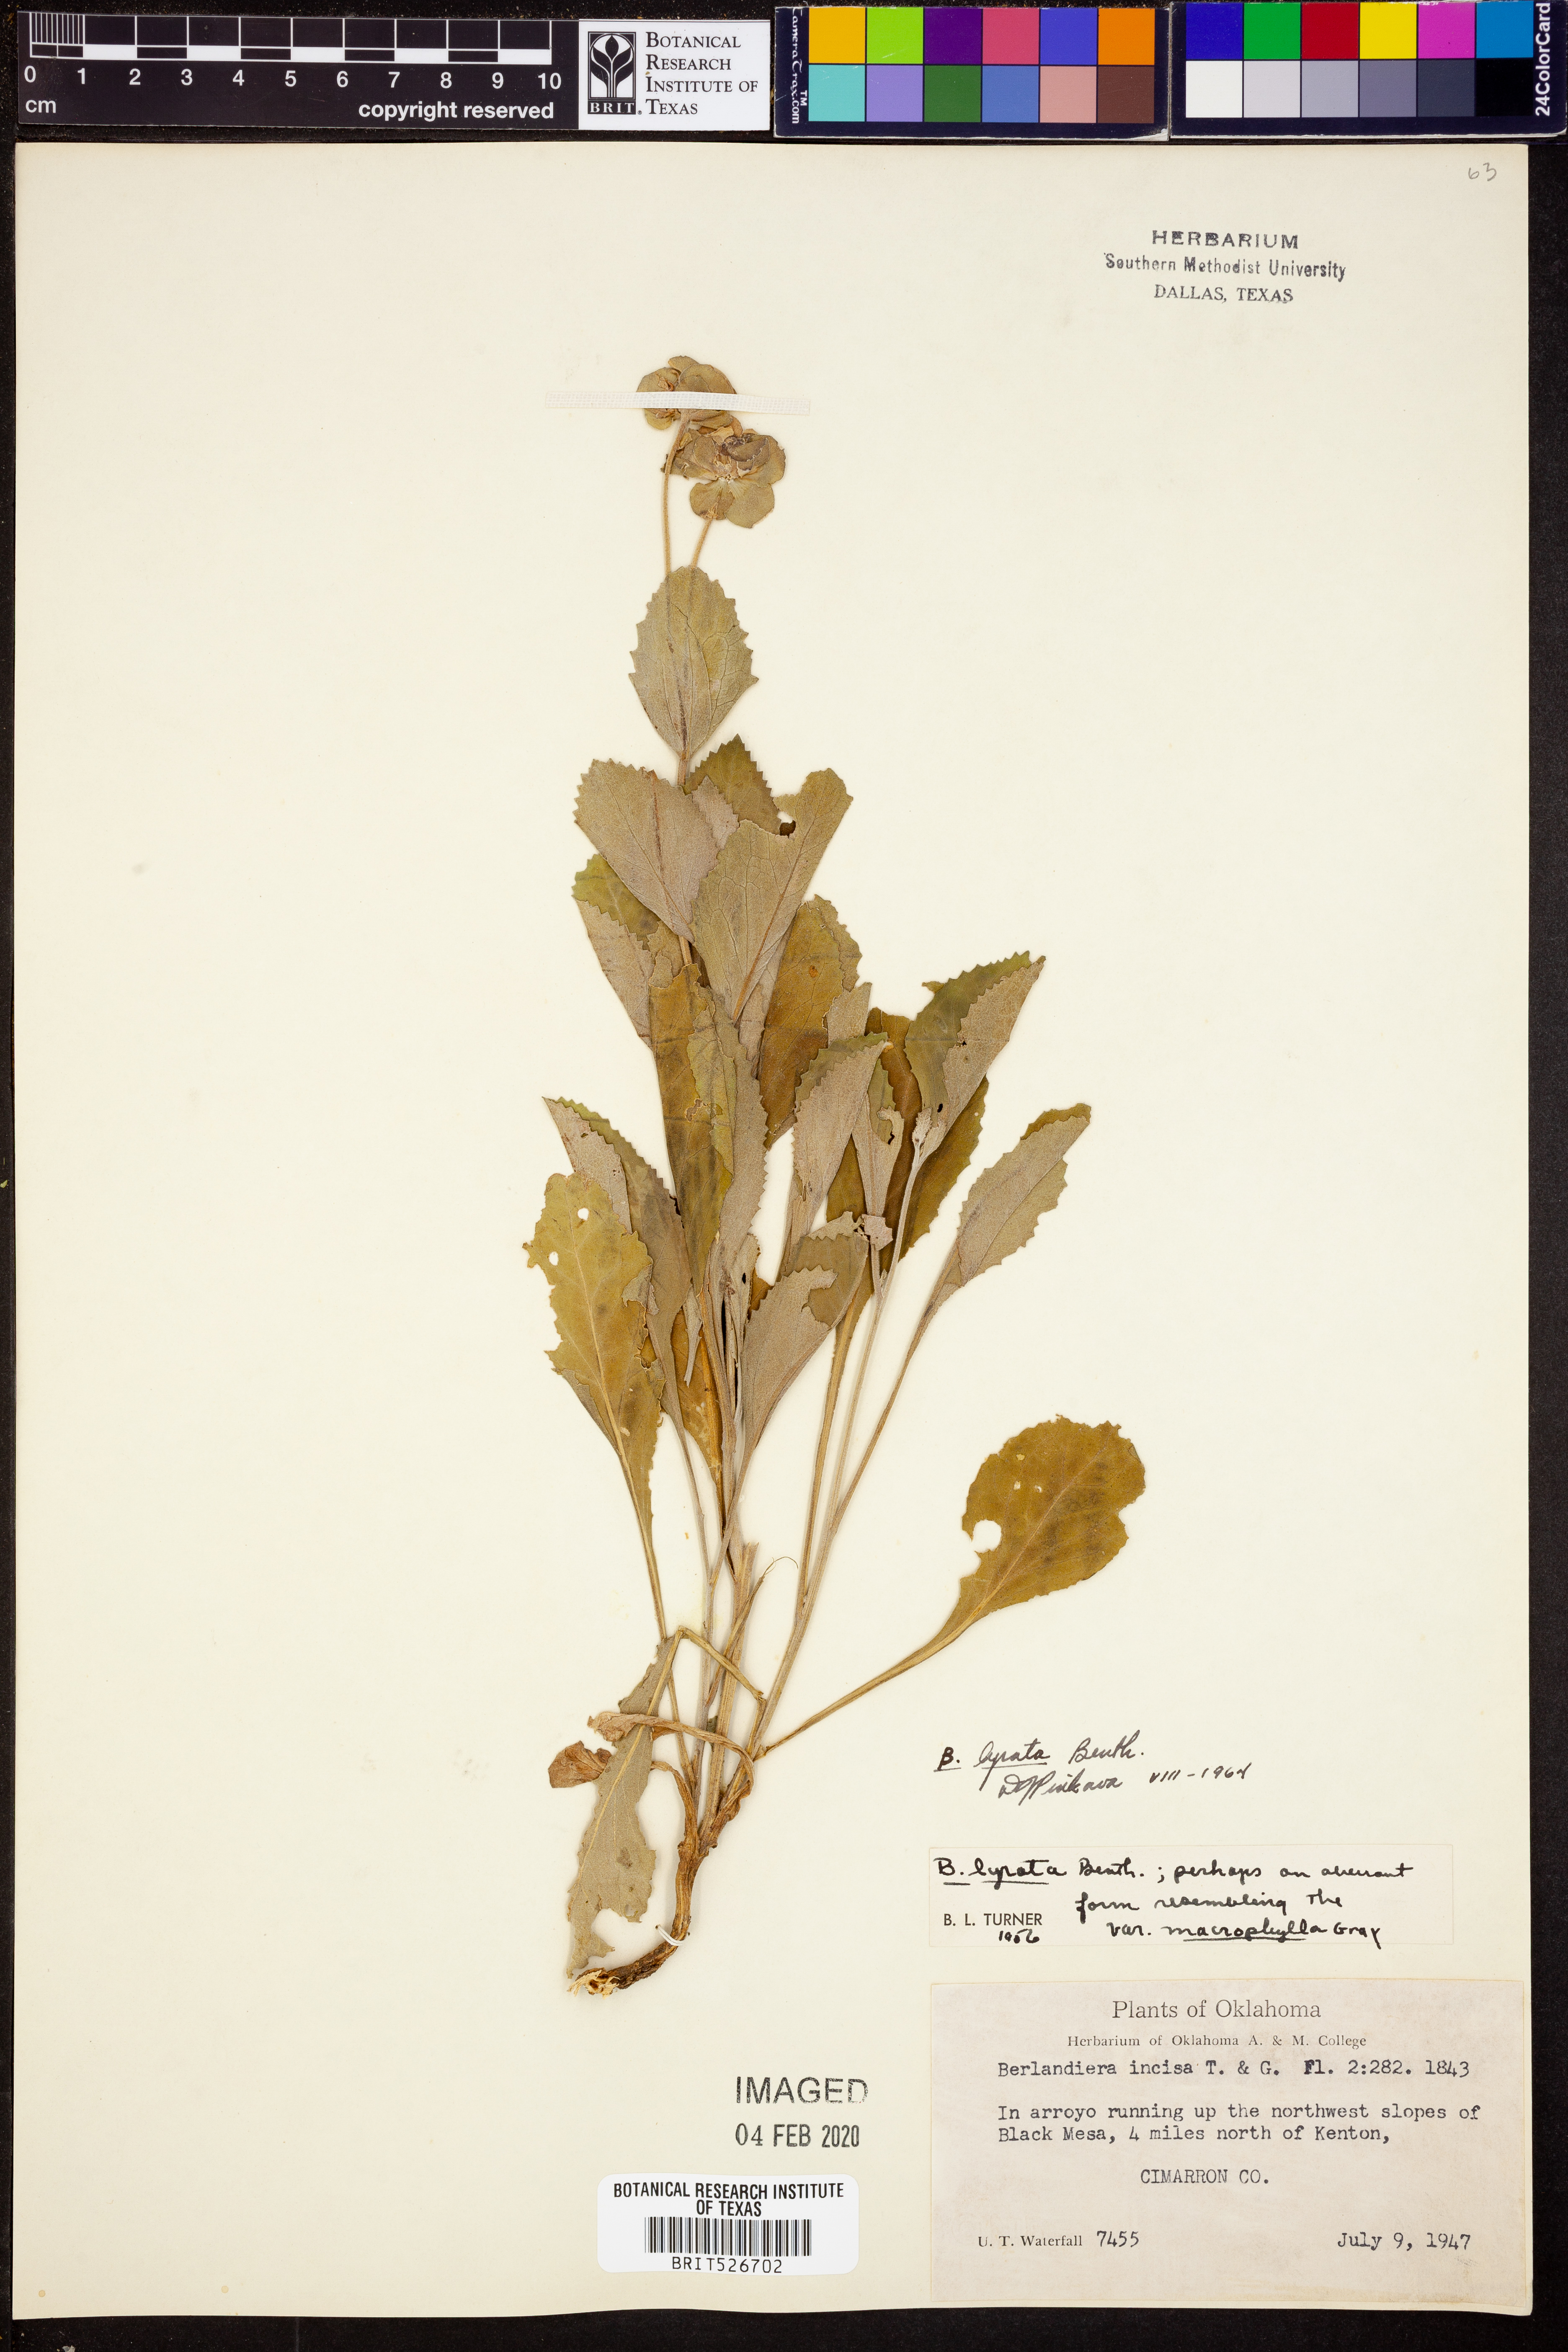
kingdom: Plantae
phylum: Tracheophyta
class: Magnoliopsida
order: Asterales
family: Asteraceae
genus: Berlandiera
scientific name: Berlandiera lyrata
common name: Chocolate-flower
